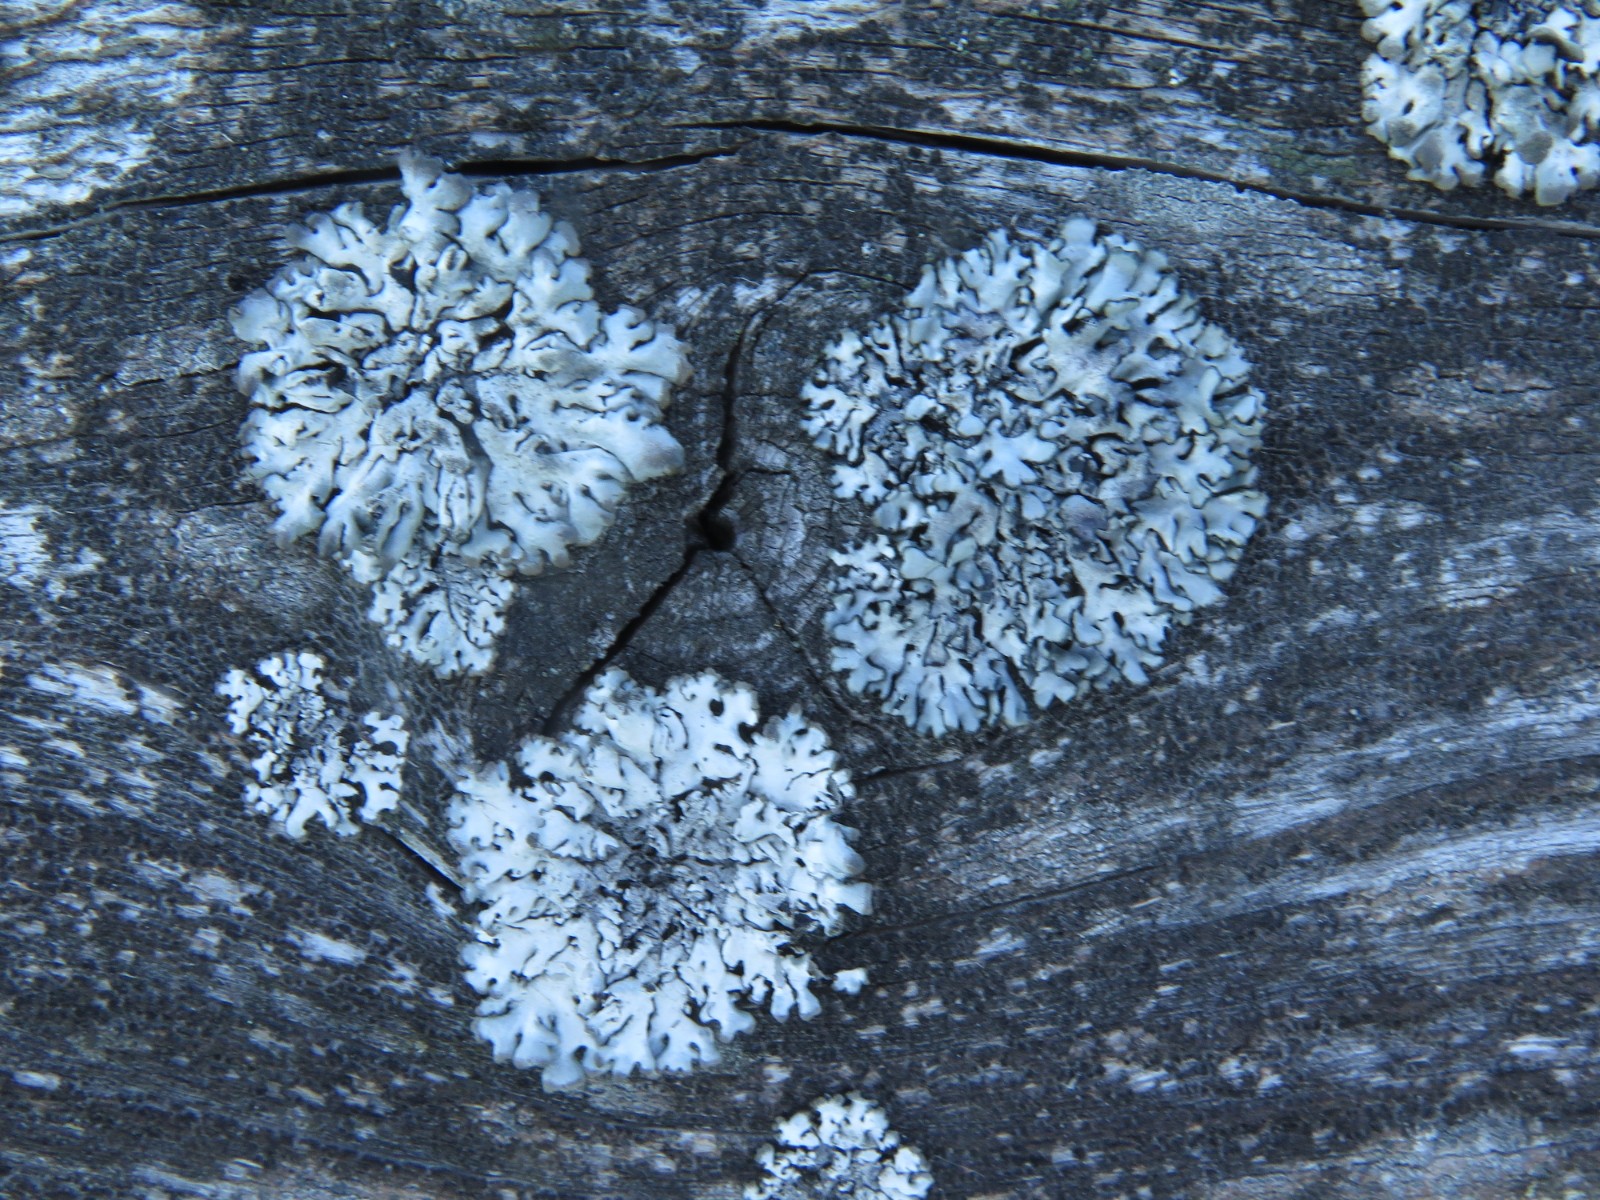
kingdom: Fungi
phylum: Ascomycota
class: Lecanoromycetes
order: Caliciales
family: Physciaceae
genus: Phaeophyscia
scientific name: Phaeophyscia orbicularis
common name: grågrøn rosetlav
